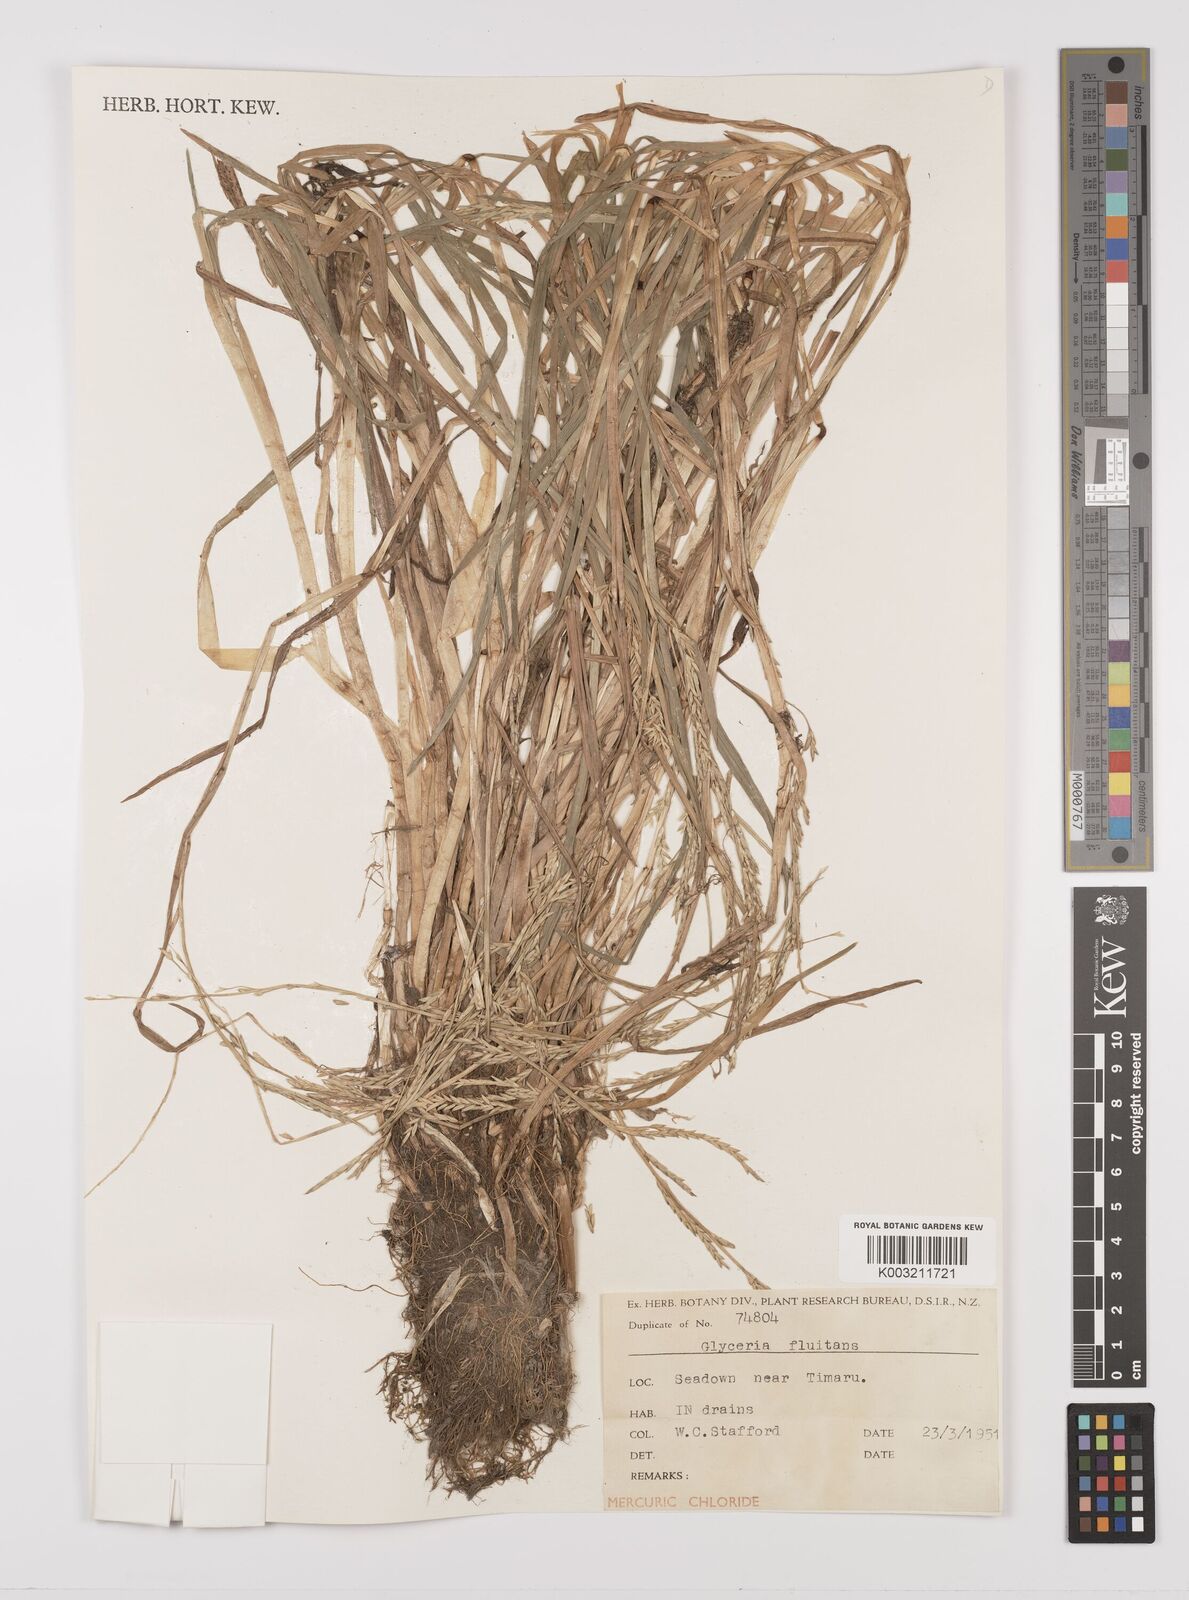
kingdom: Plantae
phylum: Tracheophyta
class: Liliopsida
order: Poales
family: Poaceae
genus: Glyceria
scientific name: Glyceria fluitans
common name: Floating sweet-grass
